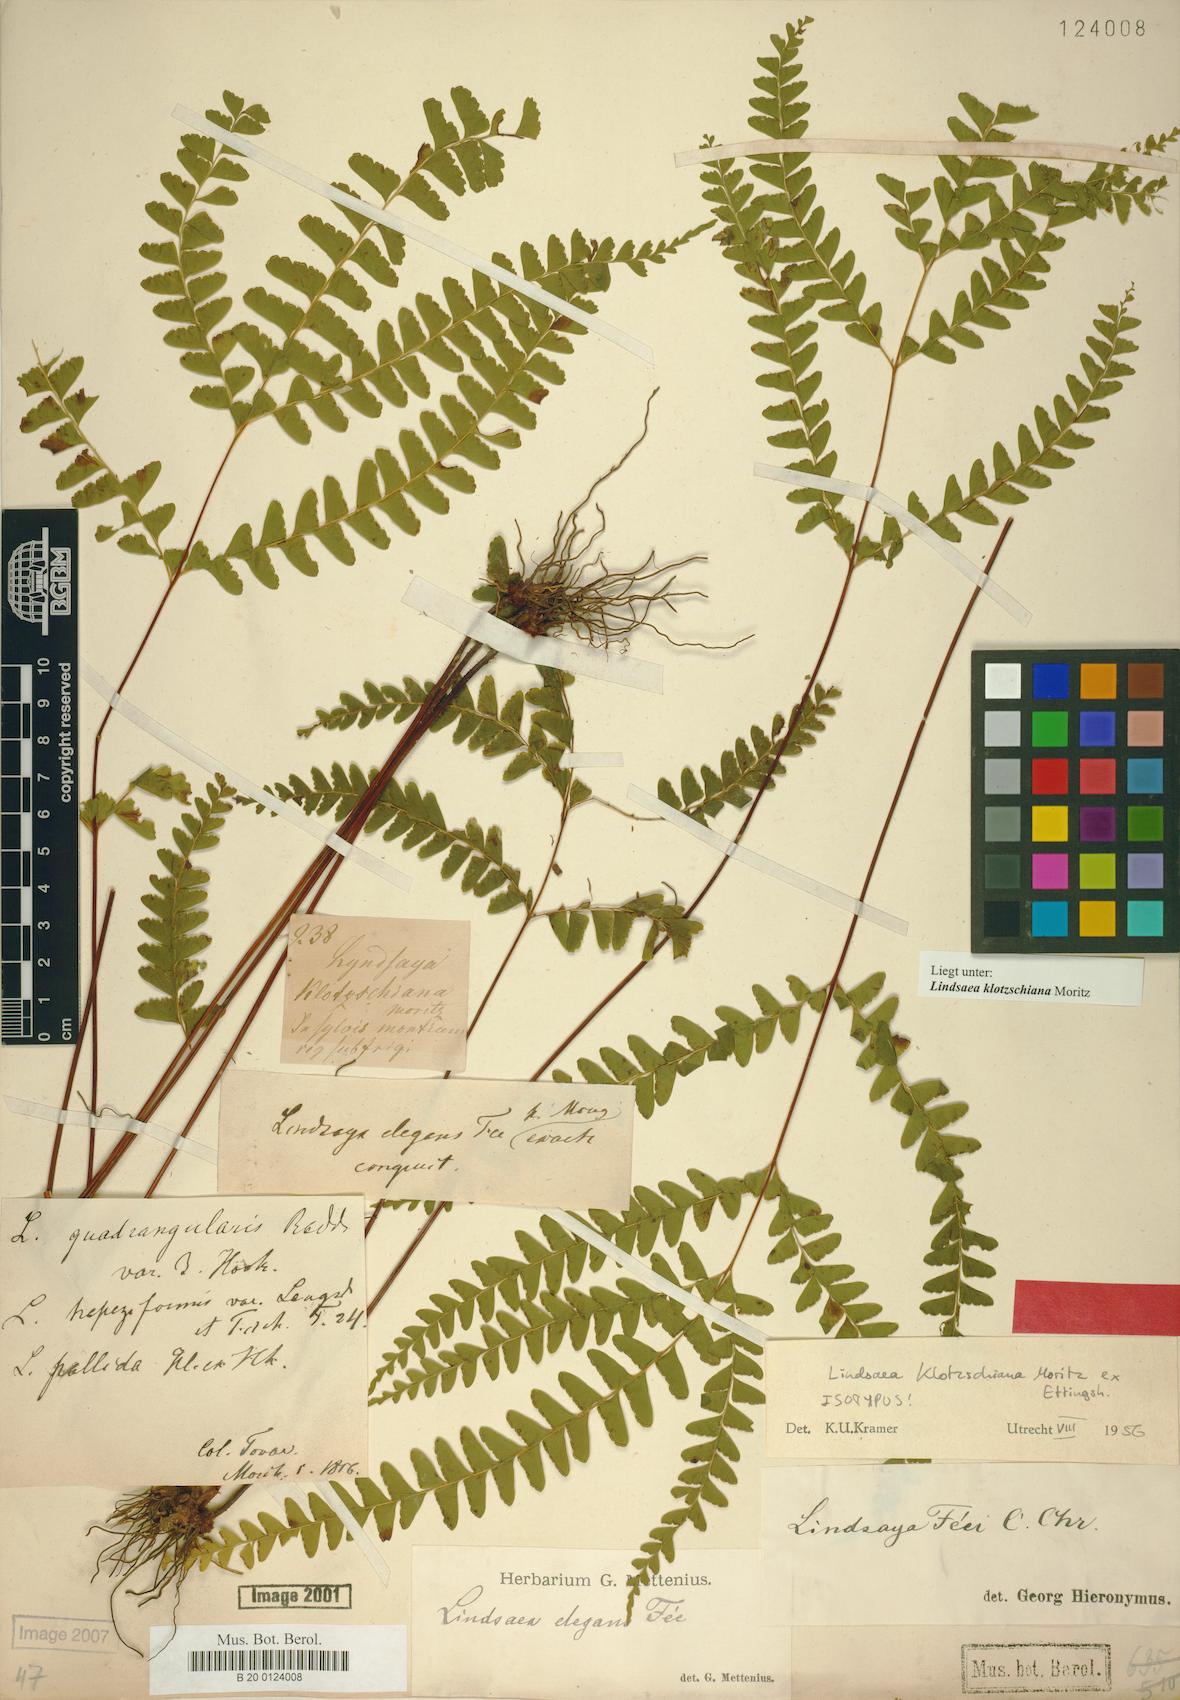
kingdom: Plantae
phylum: Tracheophyta
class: Polypodiopsida
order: Polypodiales
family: Lindsaeaceae
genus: Lindsaea
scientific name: Lindsaea feei
